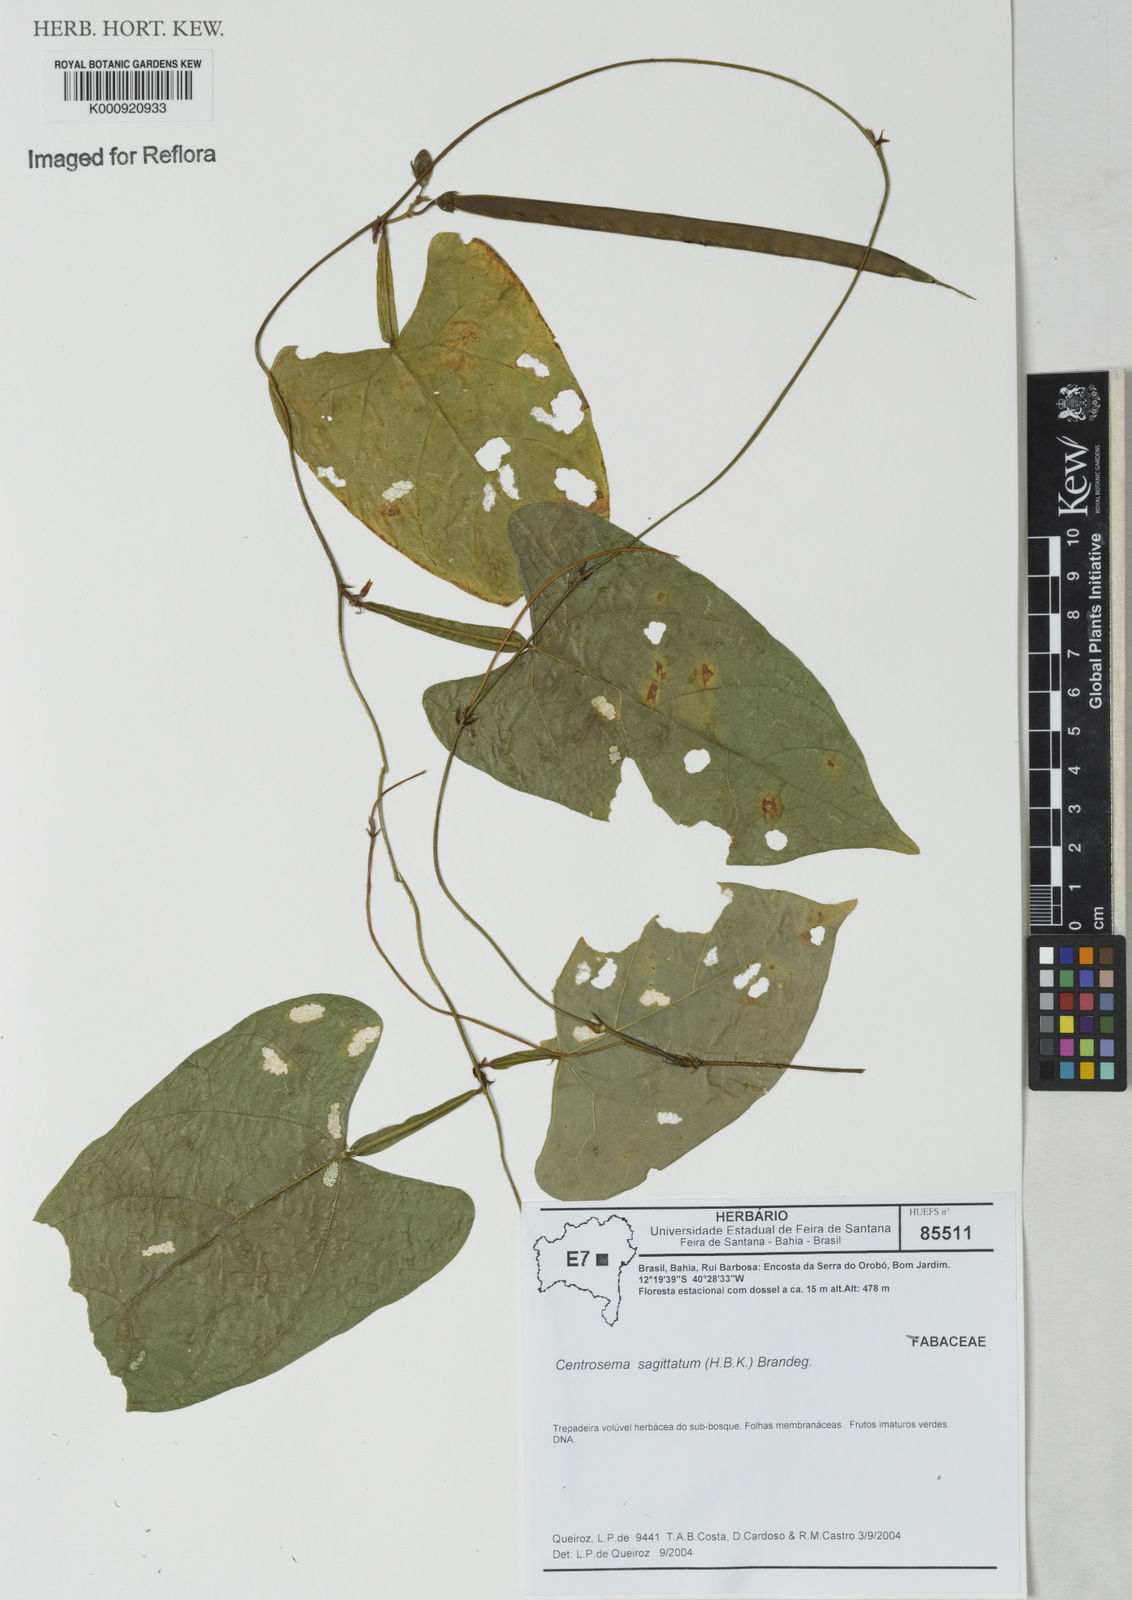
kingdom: Plantae
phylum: Tracheophyta
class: Magnoliopsida
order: Fabales
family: Fabaceae
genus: Centrosema
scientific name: Centrosema sagittatum
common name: Arrowleaf butterfly pea
